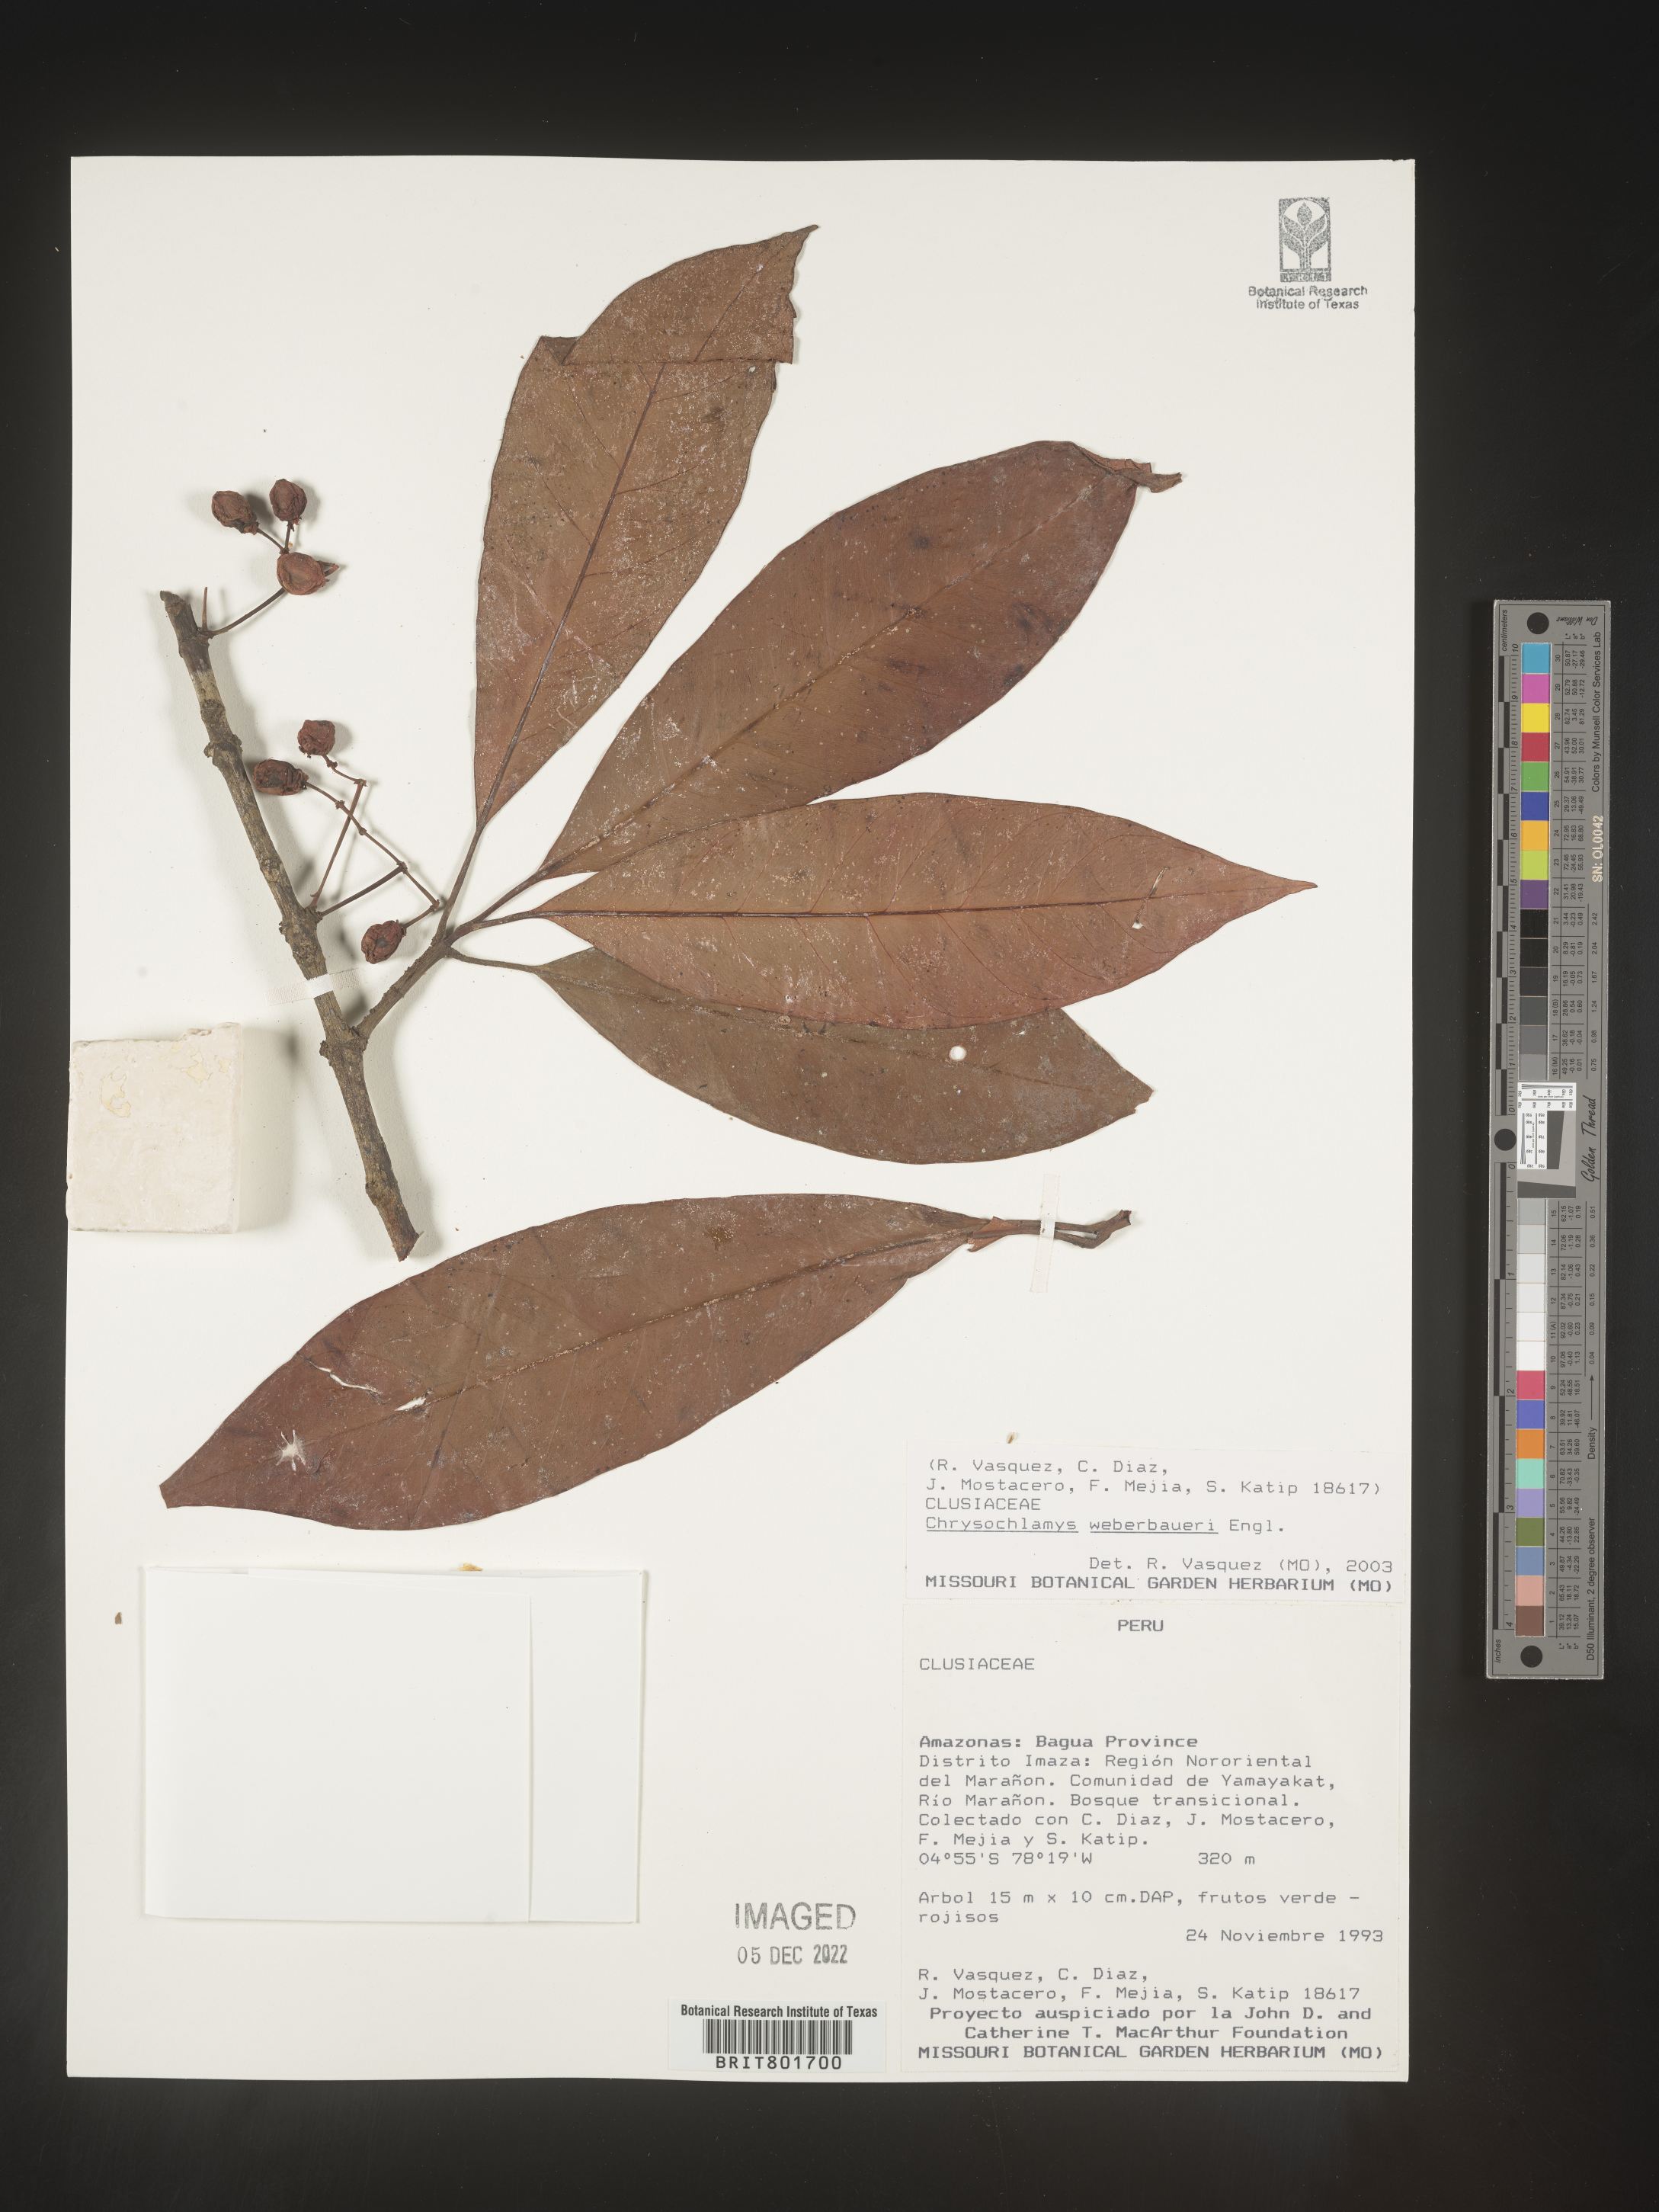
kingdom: Plantae
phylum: Tracheophyta
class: Magnoliopsida
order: Malpighiales
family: Clusiaceae
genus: Chrysochlamys
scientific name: Chrysochlamys
